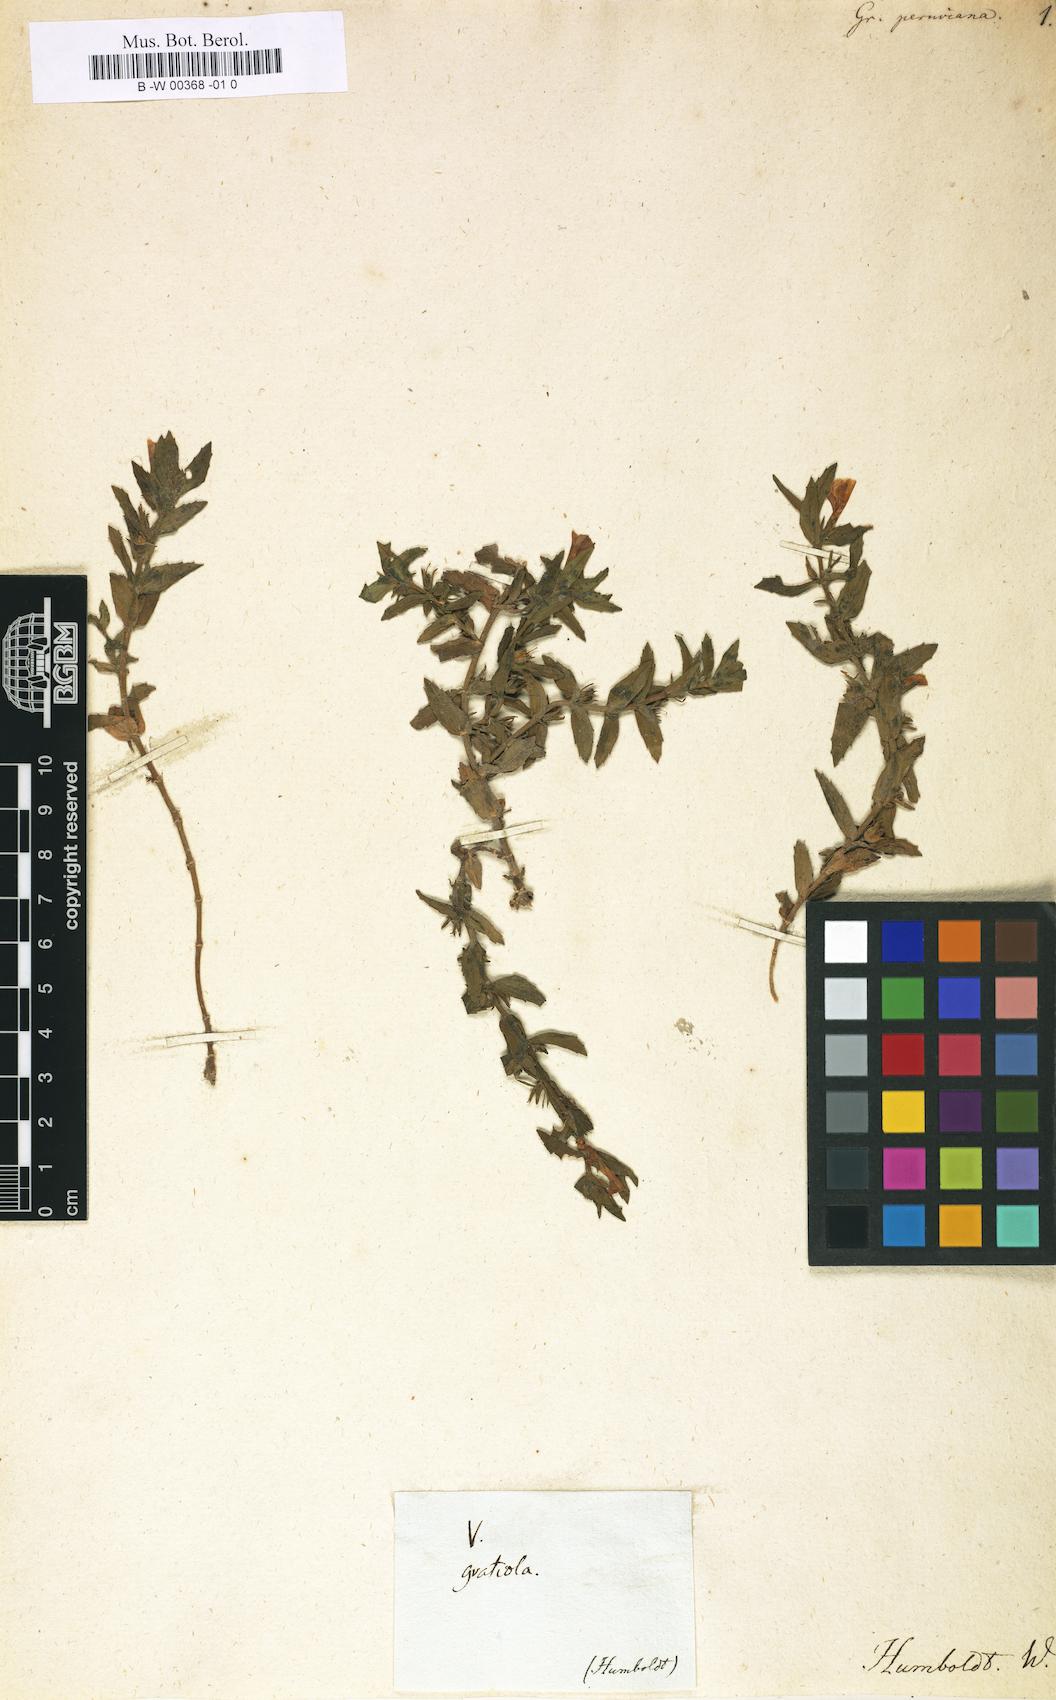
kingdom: Plantae
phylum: Tracheophyta
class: Magnoliopsida
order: Lamiales
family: Plantaginaceae
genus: Gratiola
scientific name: Gratiola peruviana
